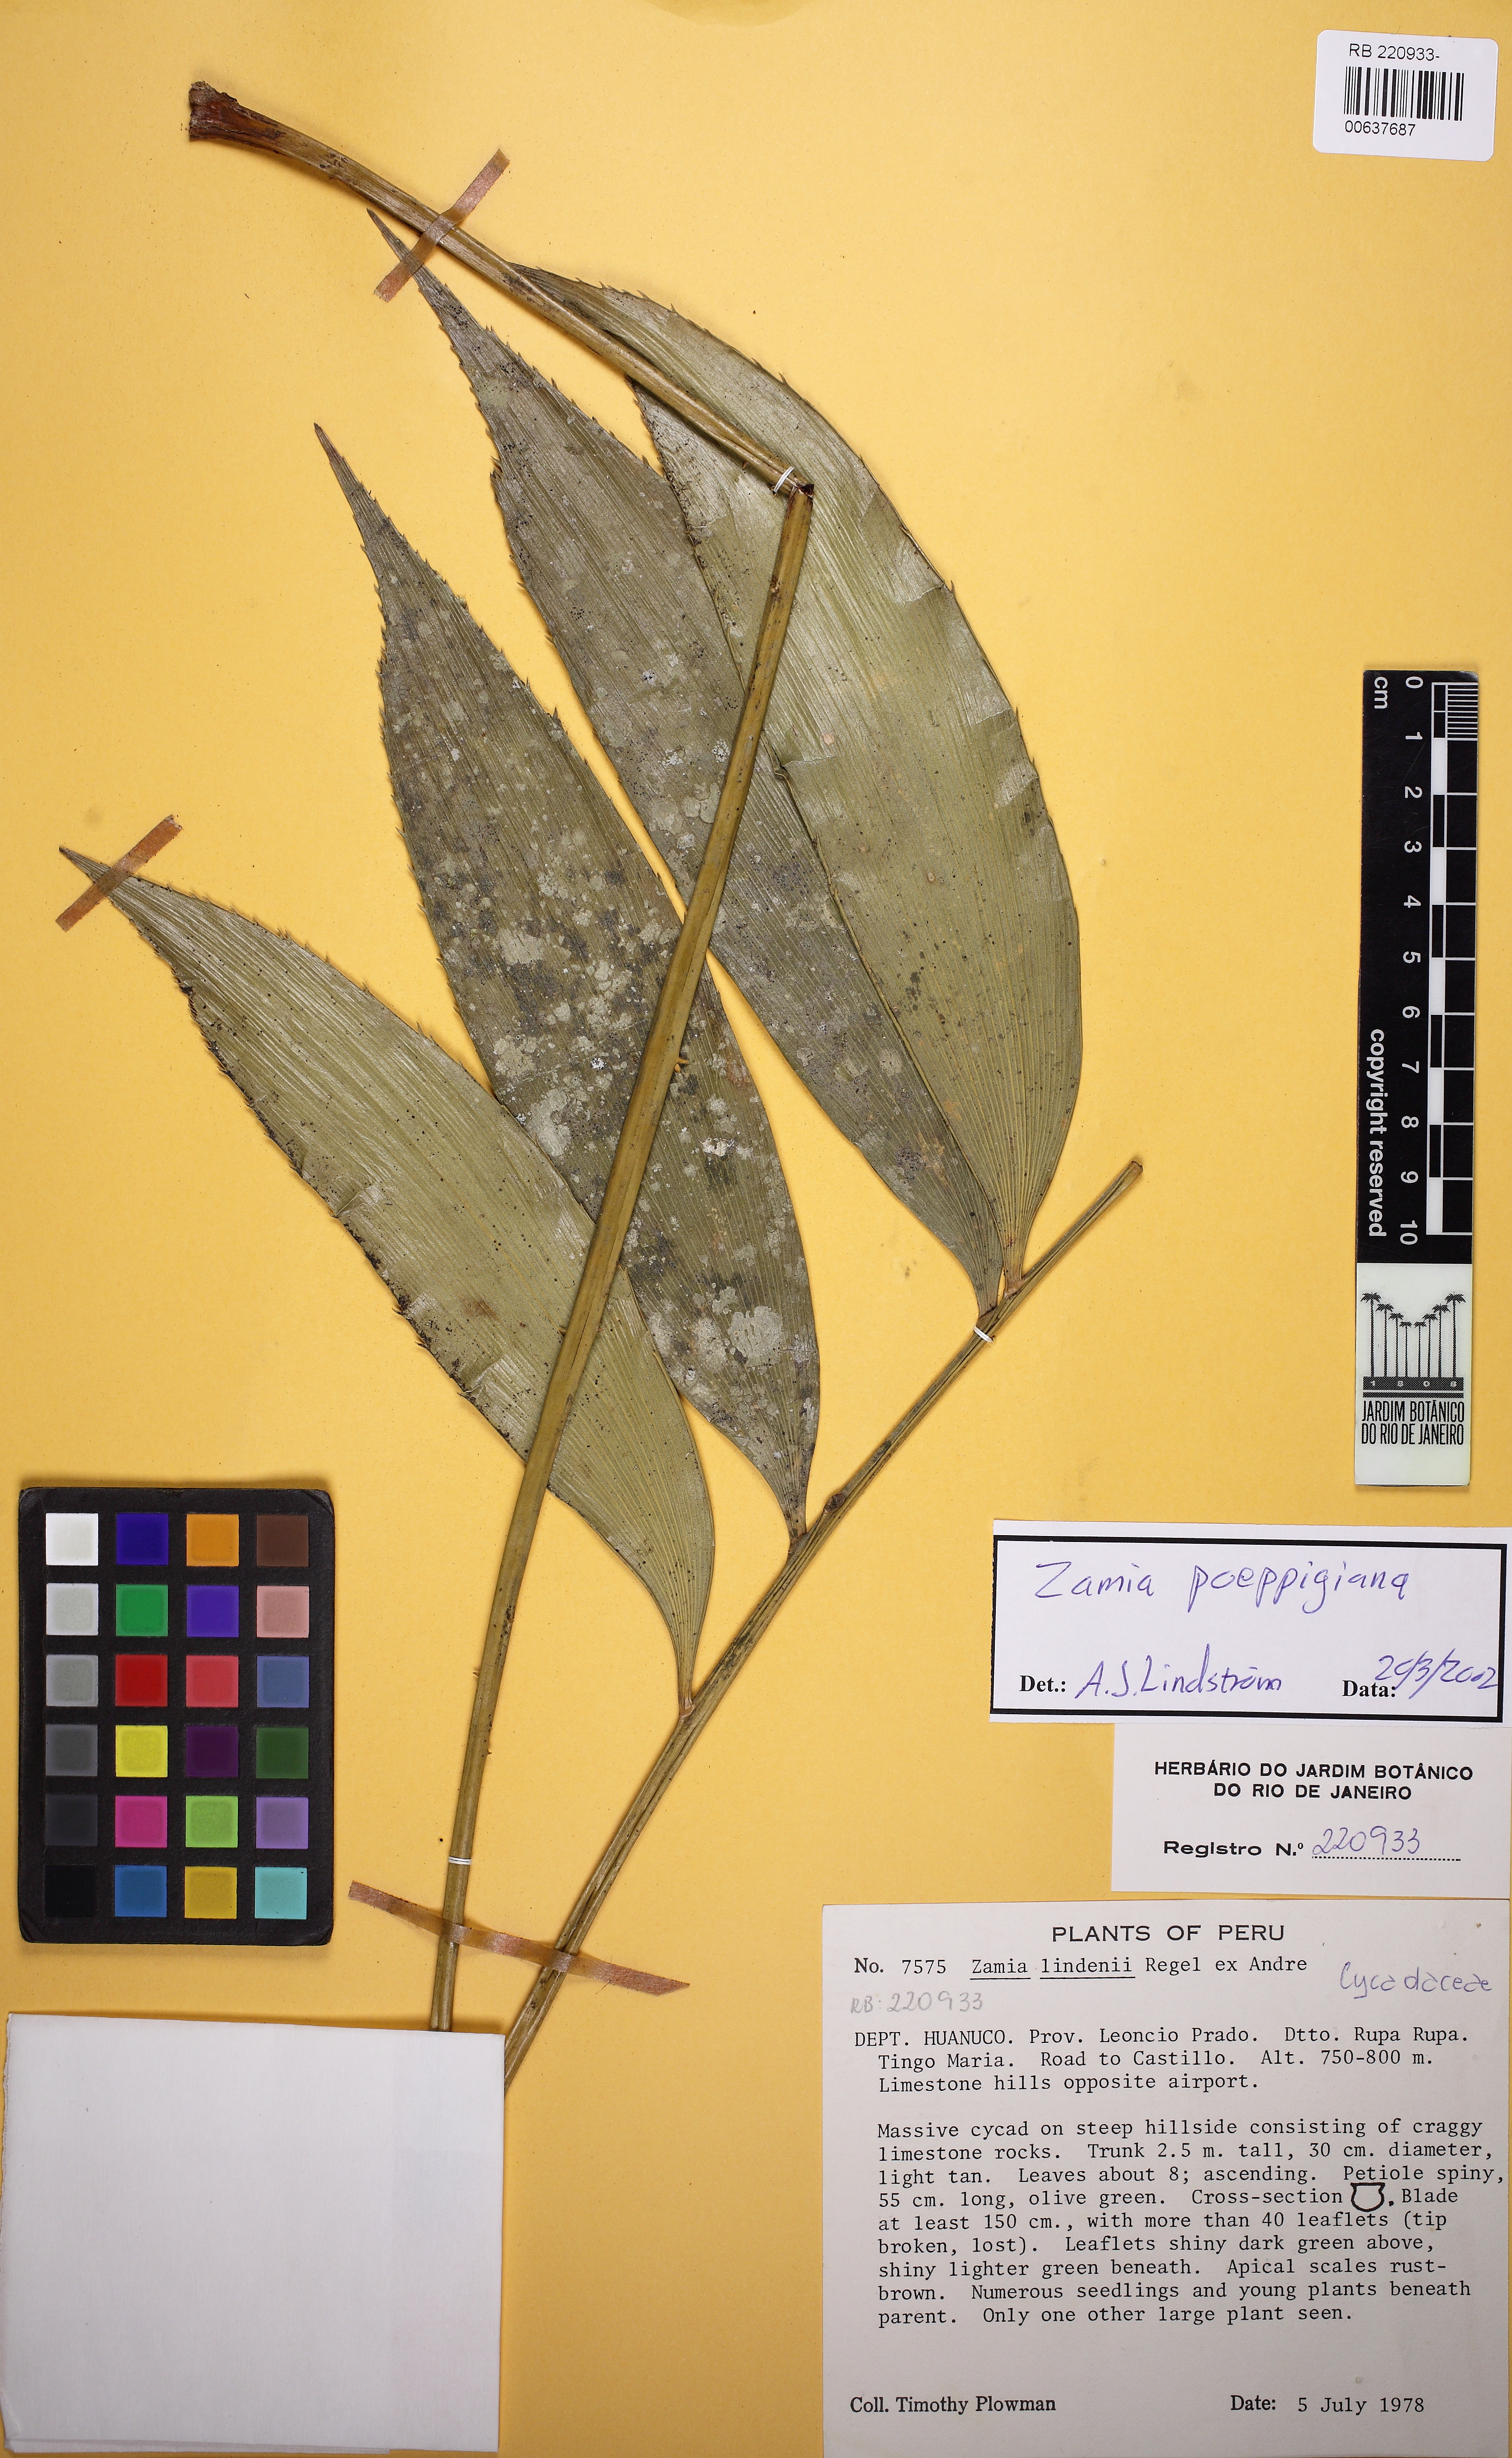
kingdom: Plantae
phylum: Tracheophyta
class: Cycadopsida
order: Cycadales
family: Zamiaceae
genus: Zamia
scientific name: Zamia poeppigiana
